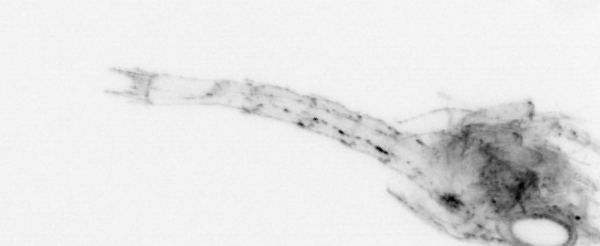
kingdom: Animalia
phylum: Arthropoda
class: Malacostraca
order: Decapoda
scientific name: Decapoda
